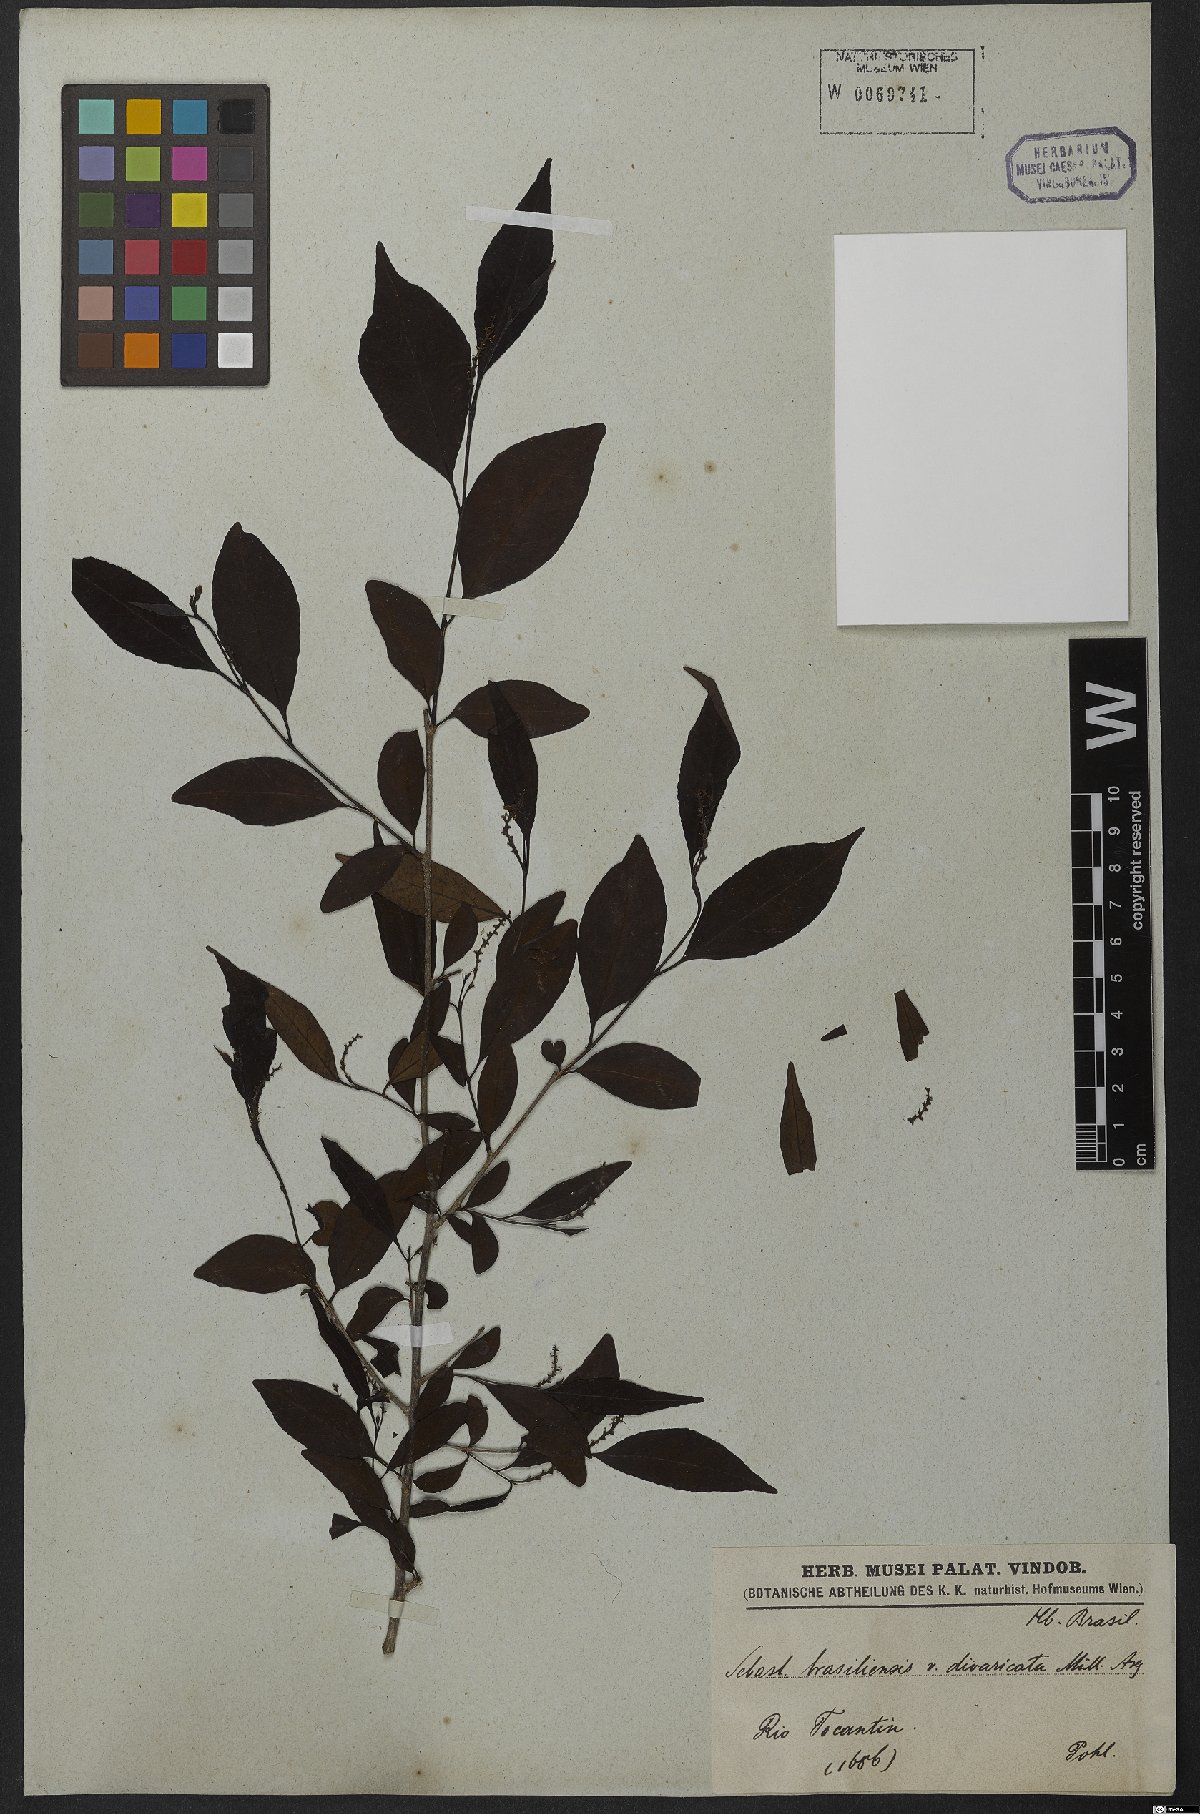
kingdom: Plantae
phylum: Tracheophyta
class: Magnoliopsida
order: Malpighiales
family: Euphorbiaceae
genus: Sebastiania
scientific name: Sebastiania ramosissima
